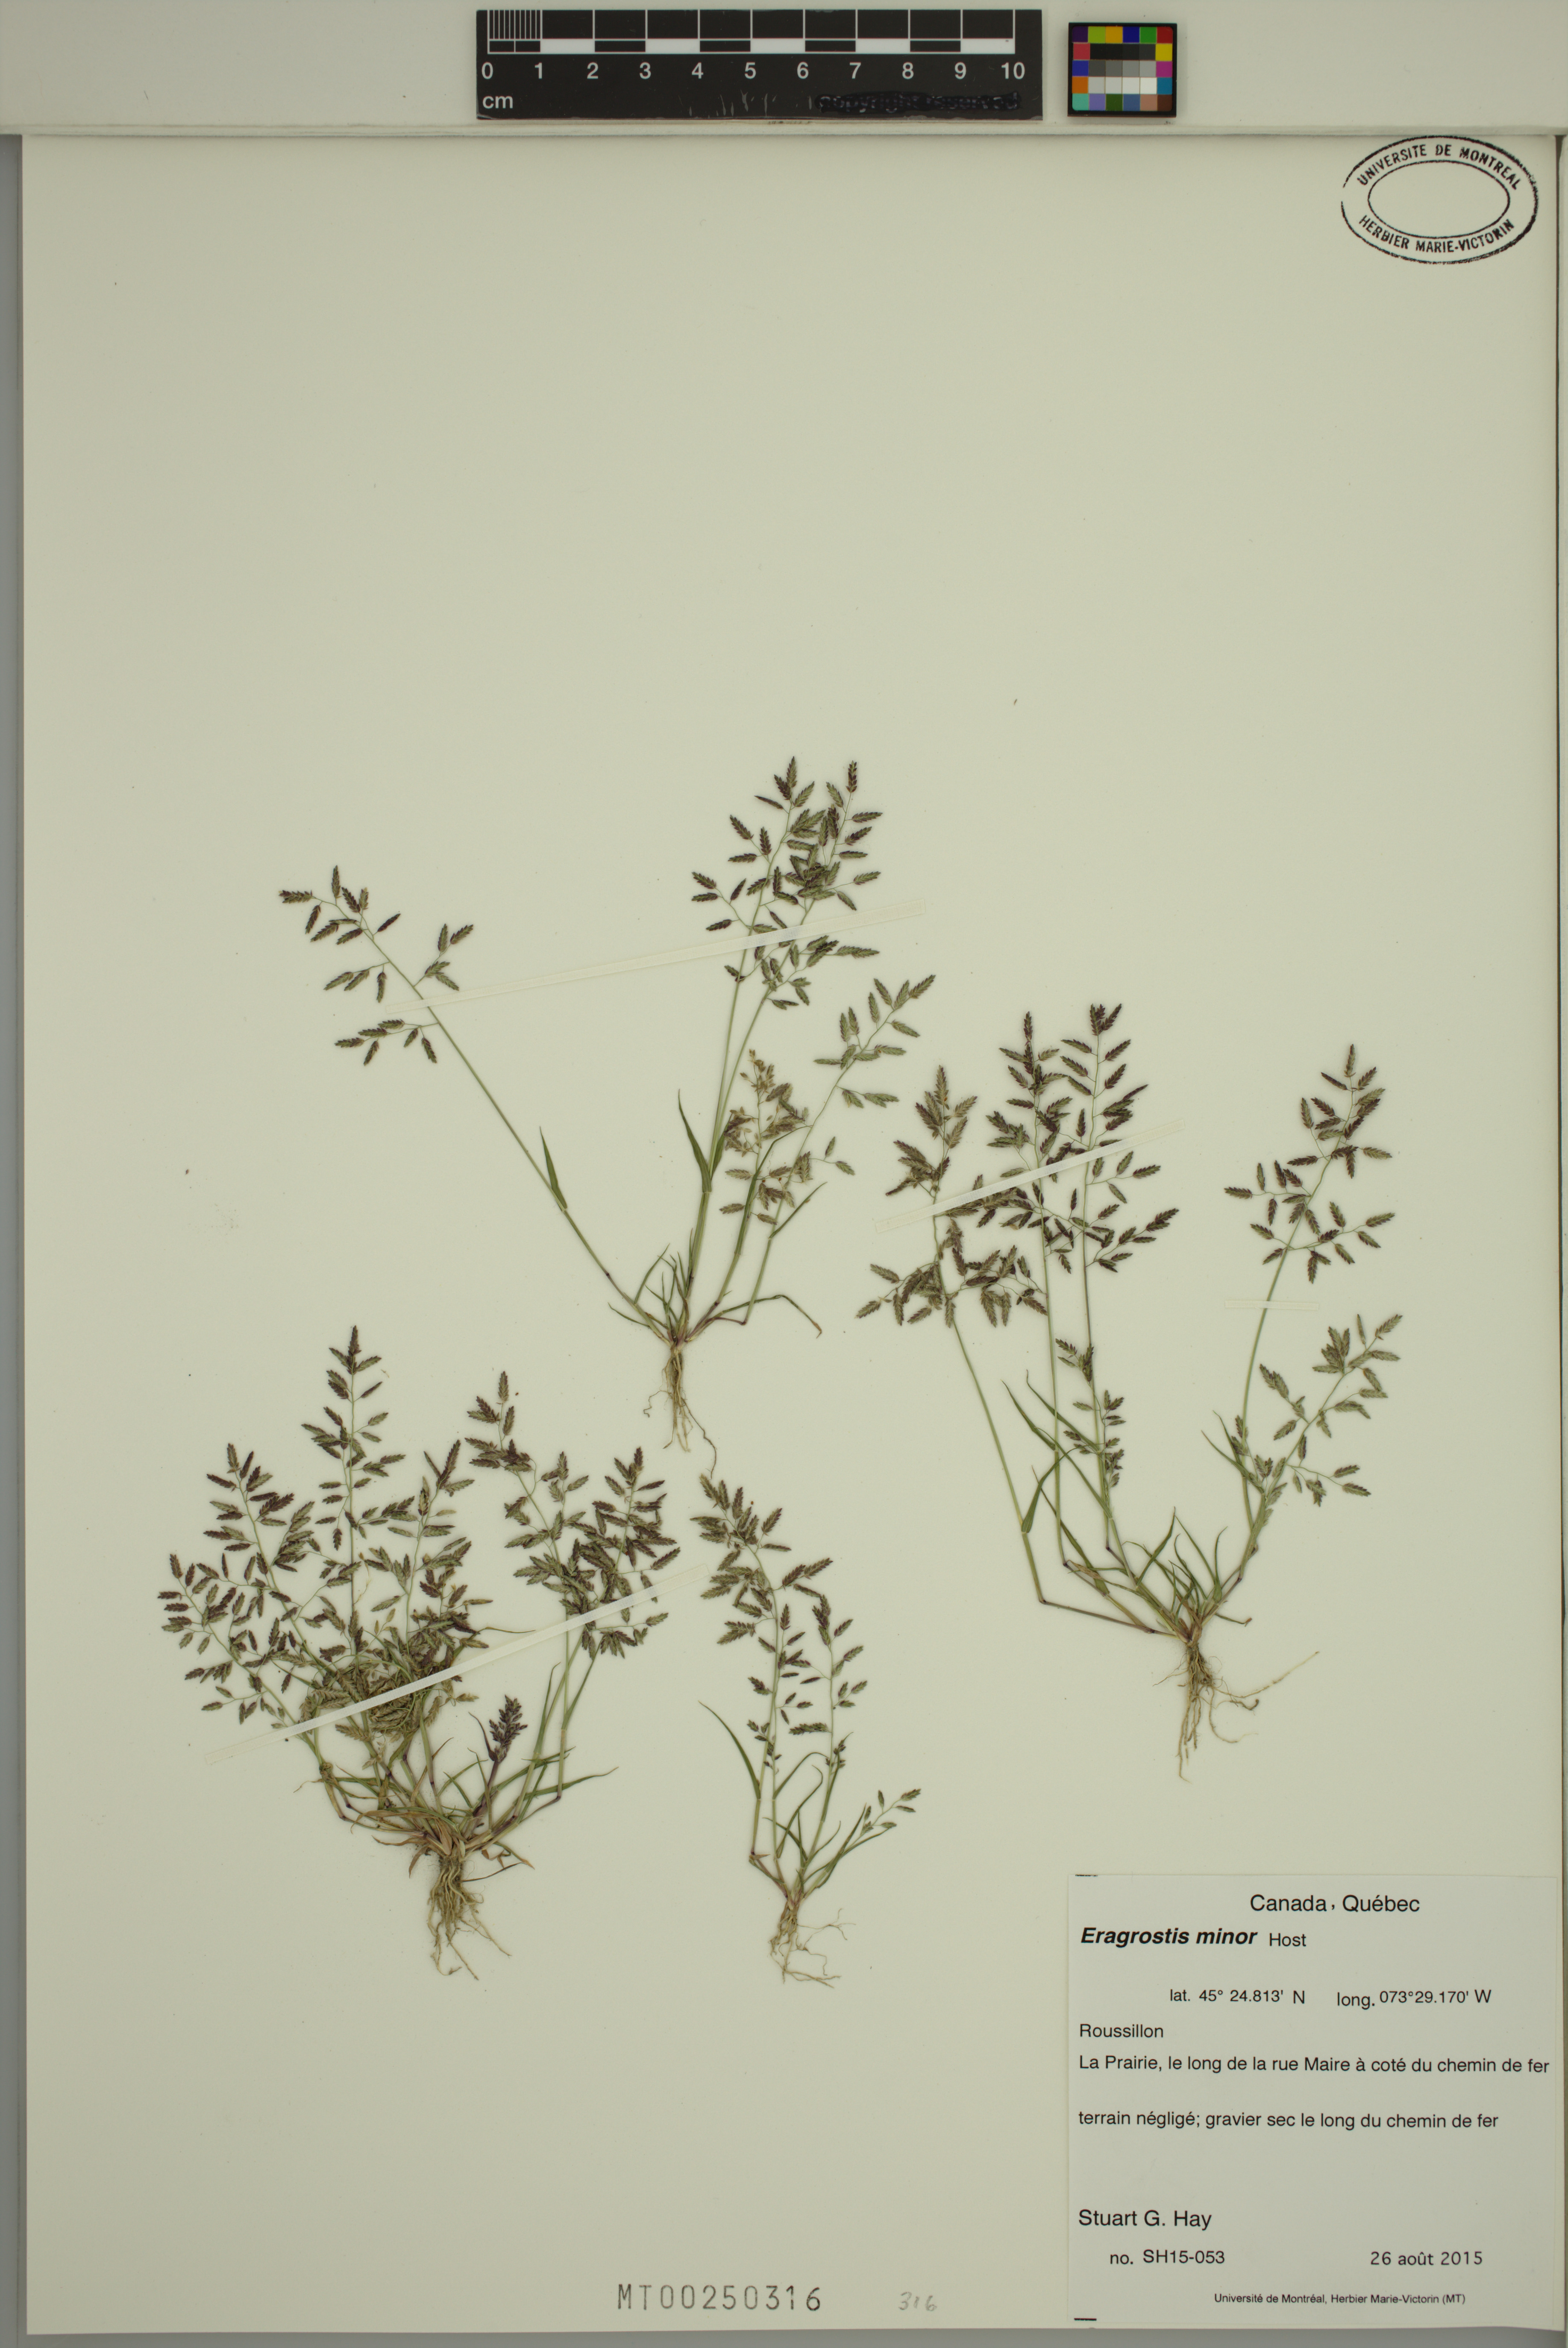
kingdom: Plantae
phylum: Tracheophyta
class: Liliopsida
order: Poales
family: Poaceae
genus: Eragrostis
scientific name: Eragrostis minor
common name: Small love-grass
